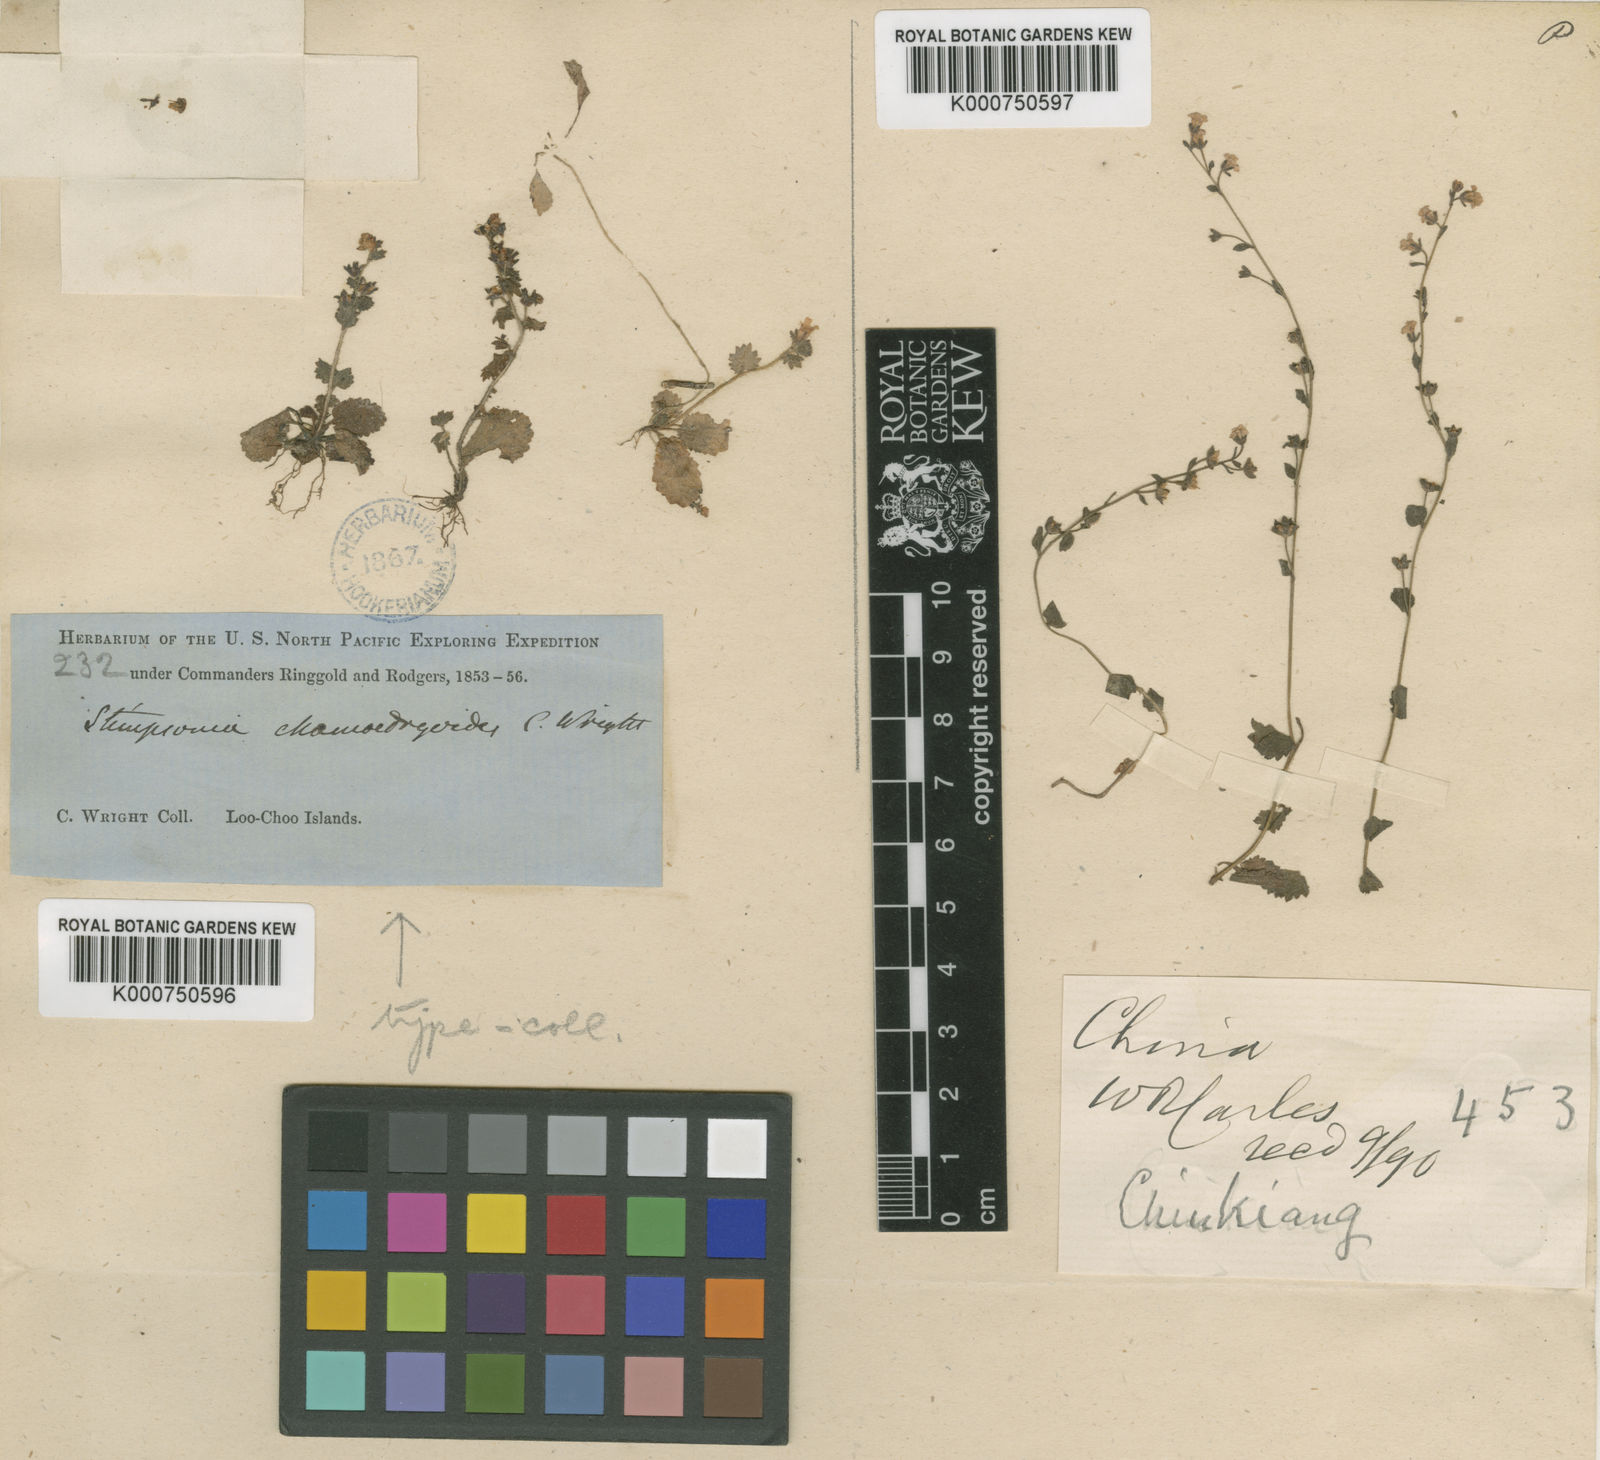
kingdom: Plantae
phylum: Tracheophyta
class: Magnoliopsida
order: Ericales
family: Primulaceae
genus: Stimpsonia
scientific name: Stimpsonia chamaedryoides
